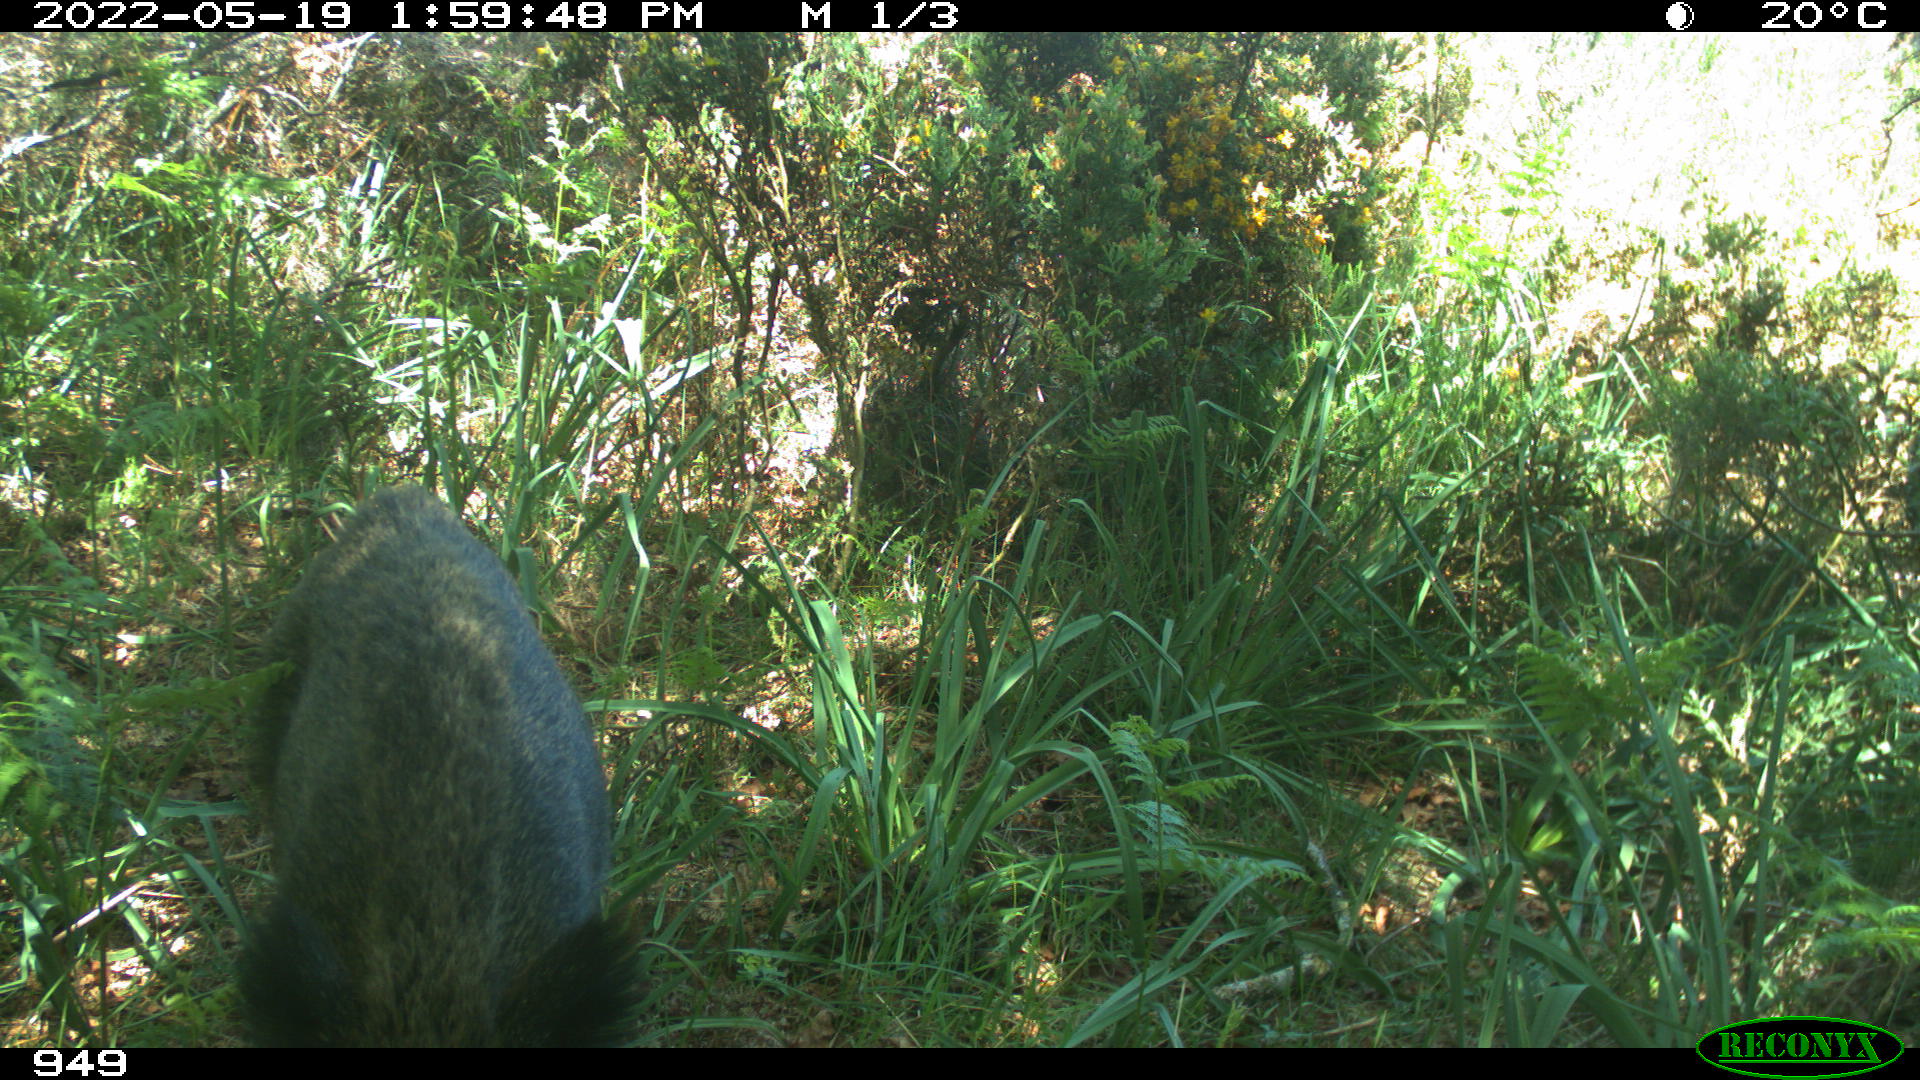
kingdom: Animalia
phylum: Chordata
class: Mammalia
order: Artiodactyla
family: Suidae
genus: Sus
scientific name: Sus scrofa
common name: Wild boar
